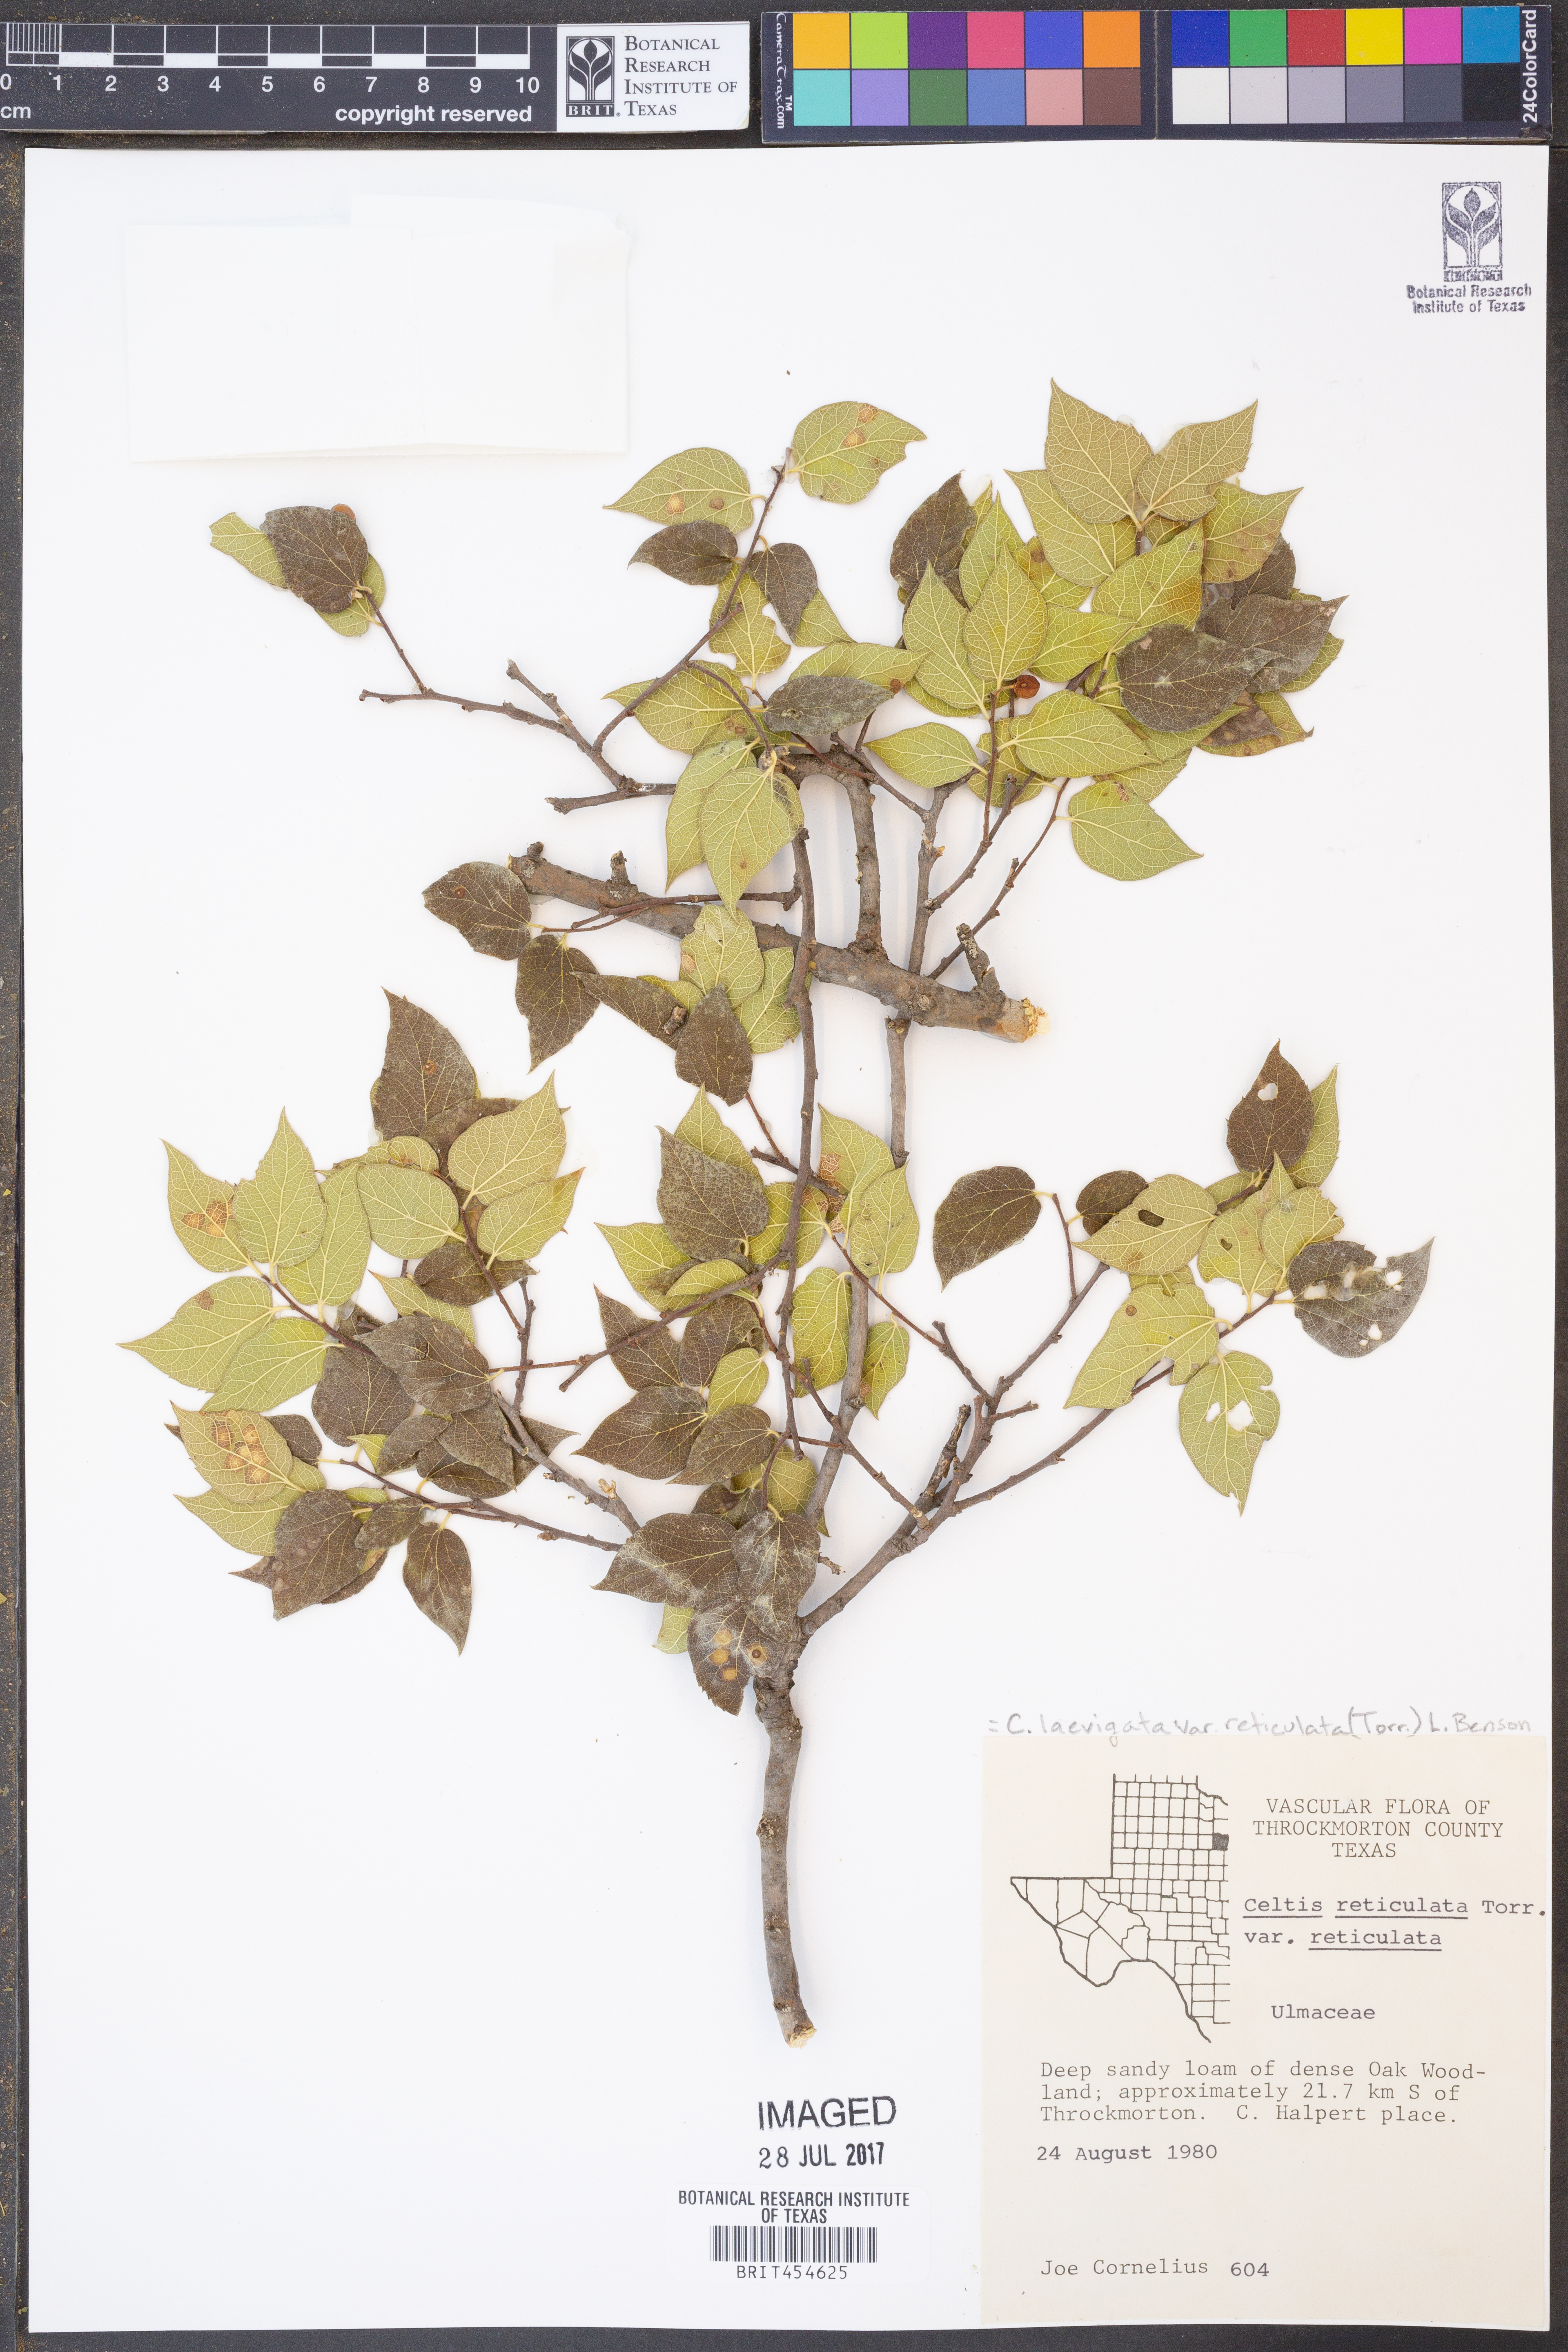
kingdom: Plantae
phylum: Tracheophyta
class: Magnoliopsida
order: Rosales
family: Cannabaceae
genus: Celtis
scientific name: Celtis reticulata
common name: Netleaf hackberry
